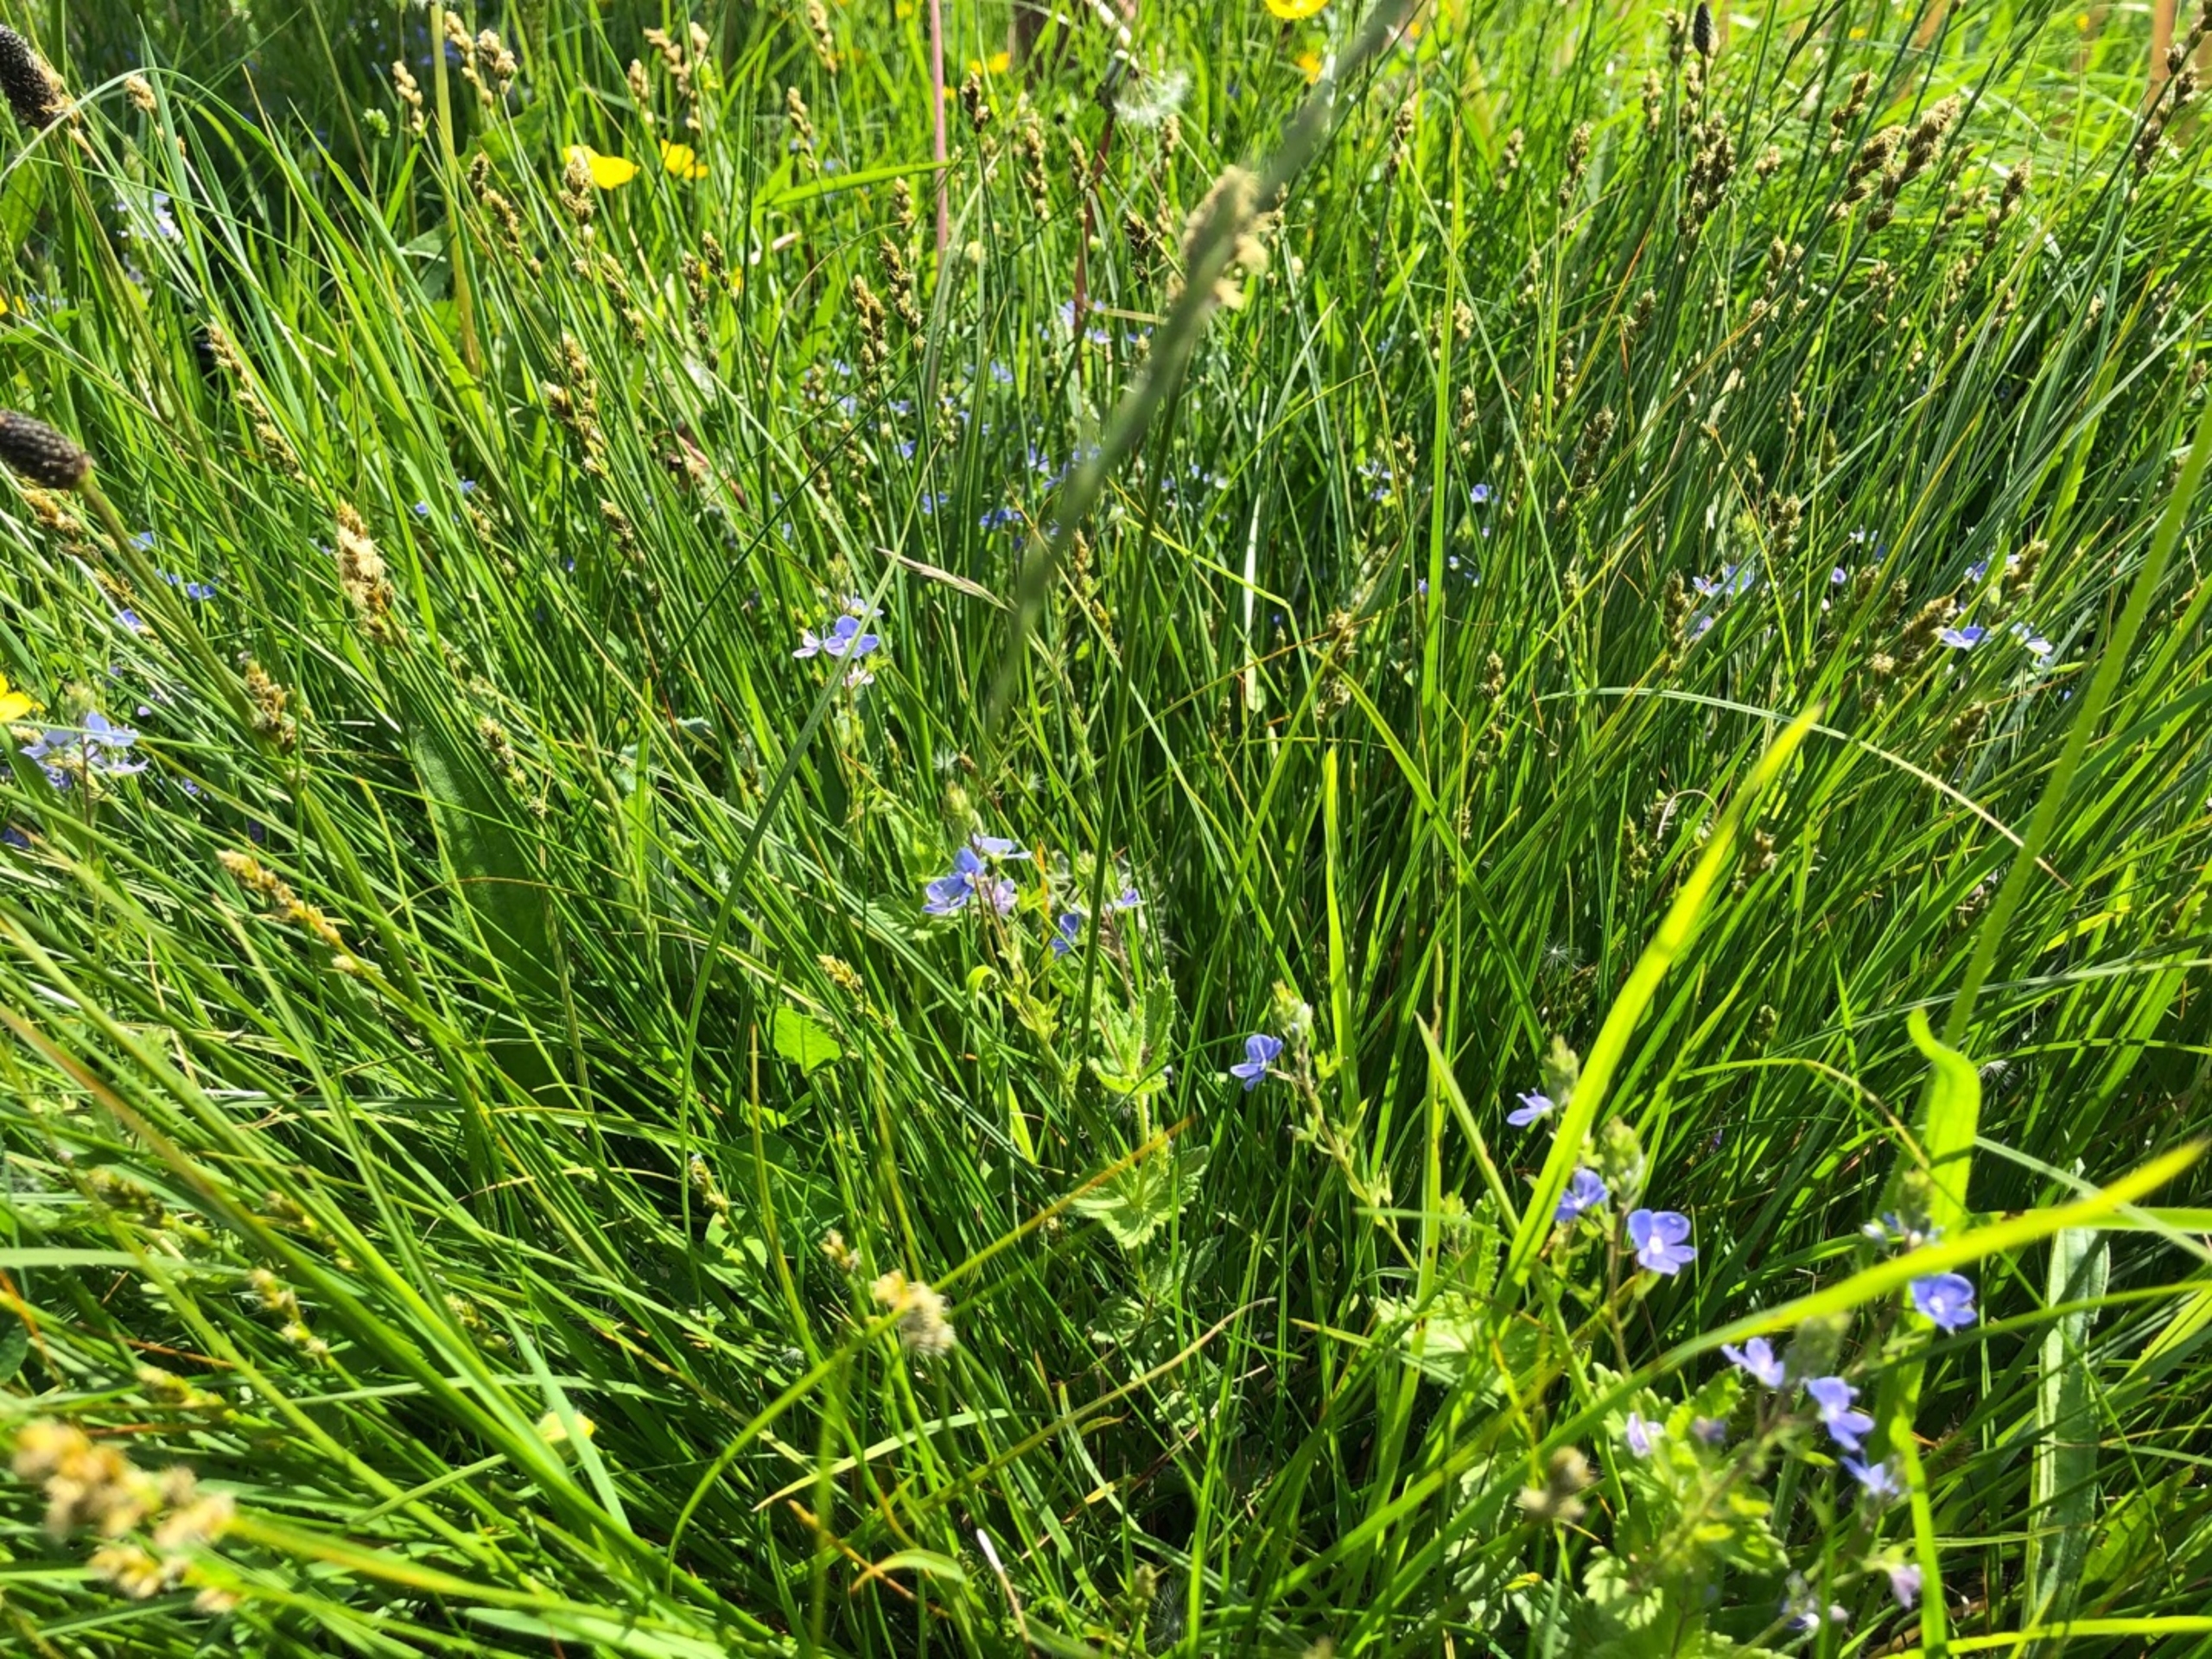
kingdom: Plantae
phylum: Tracheophyta
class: Liliopsida
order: Poales
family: Cyperaceae
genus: Carex
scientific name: Carex leporina
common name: Hare-star
